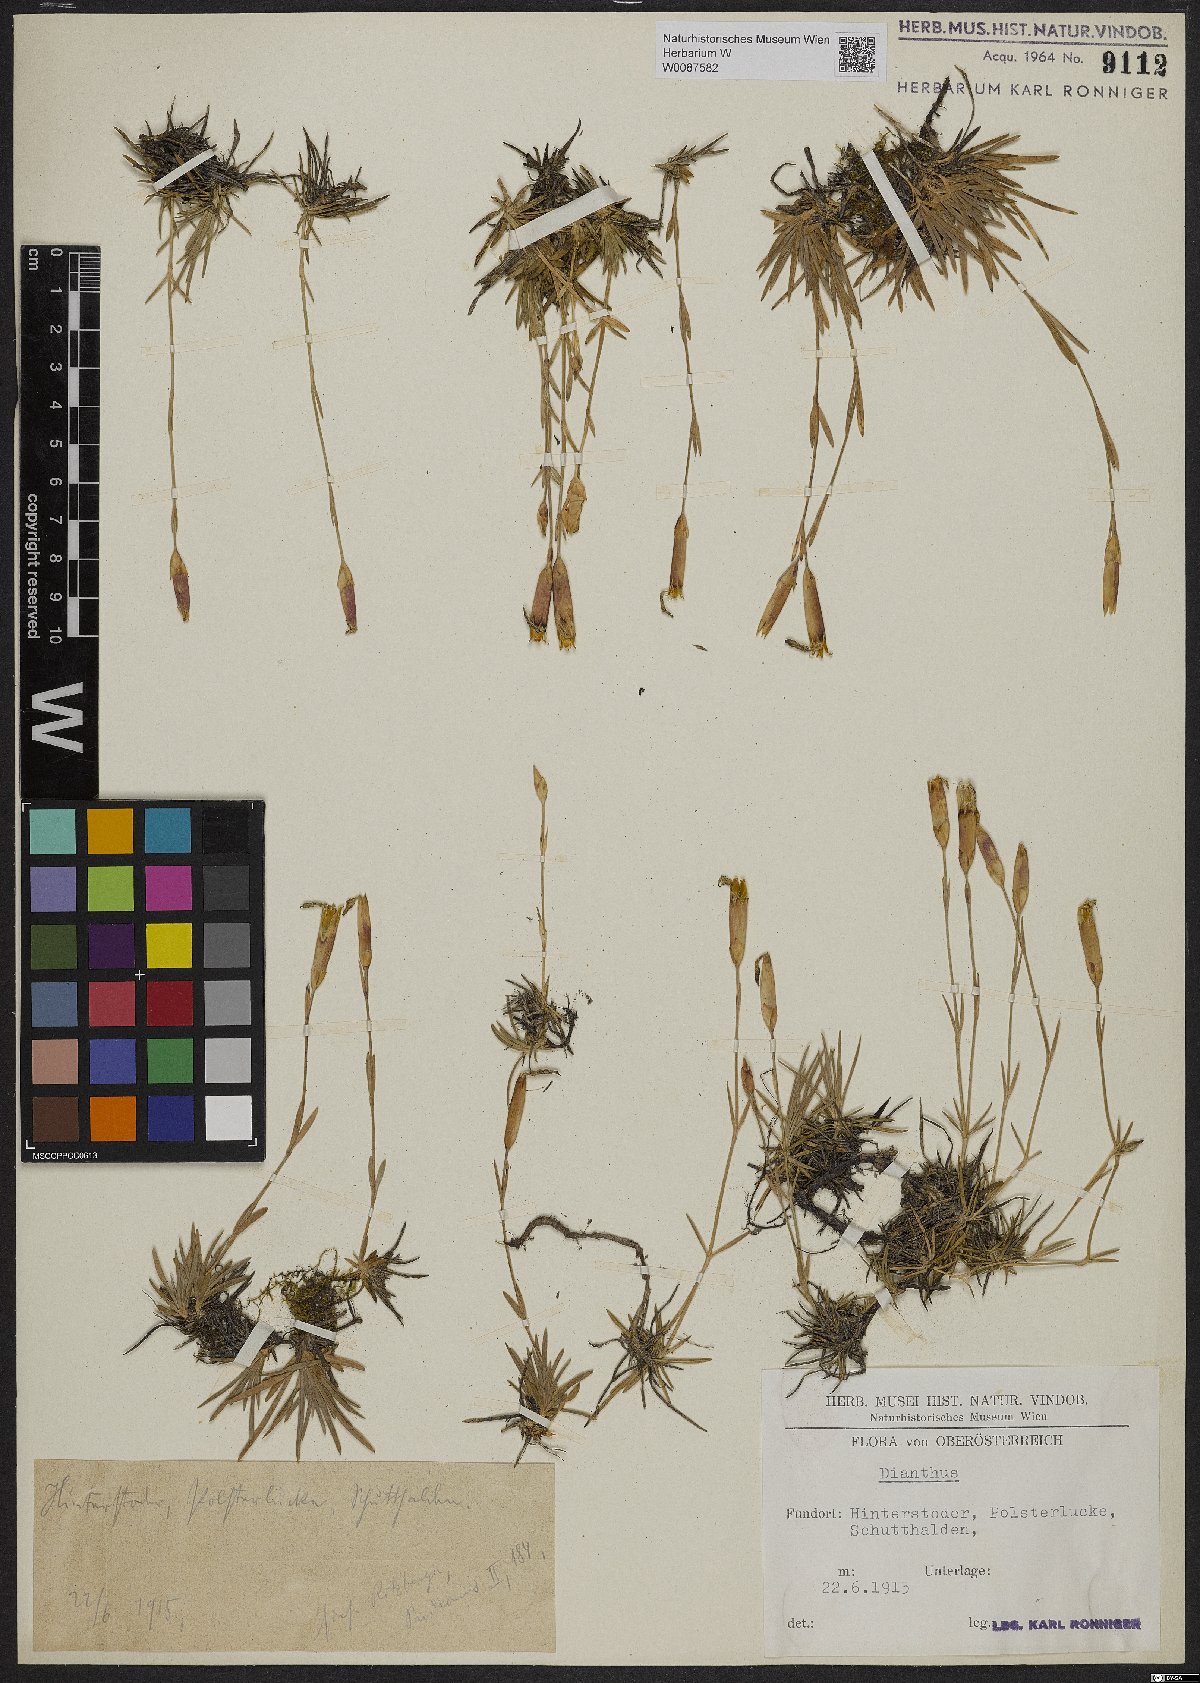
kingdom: Plantae
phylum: Tracheophyta
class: Magnoliopsida
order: Caryophyllales
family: Caryophyllaceae
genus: Dianthus
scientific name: Dianthus plumarius
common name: Pink
